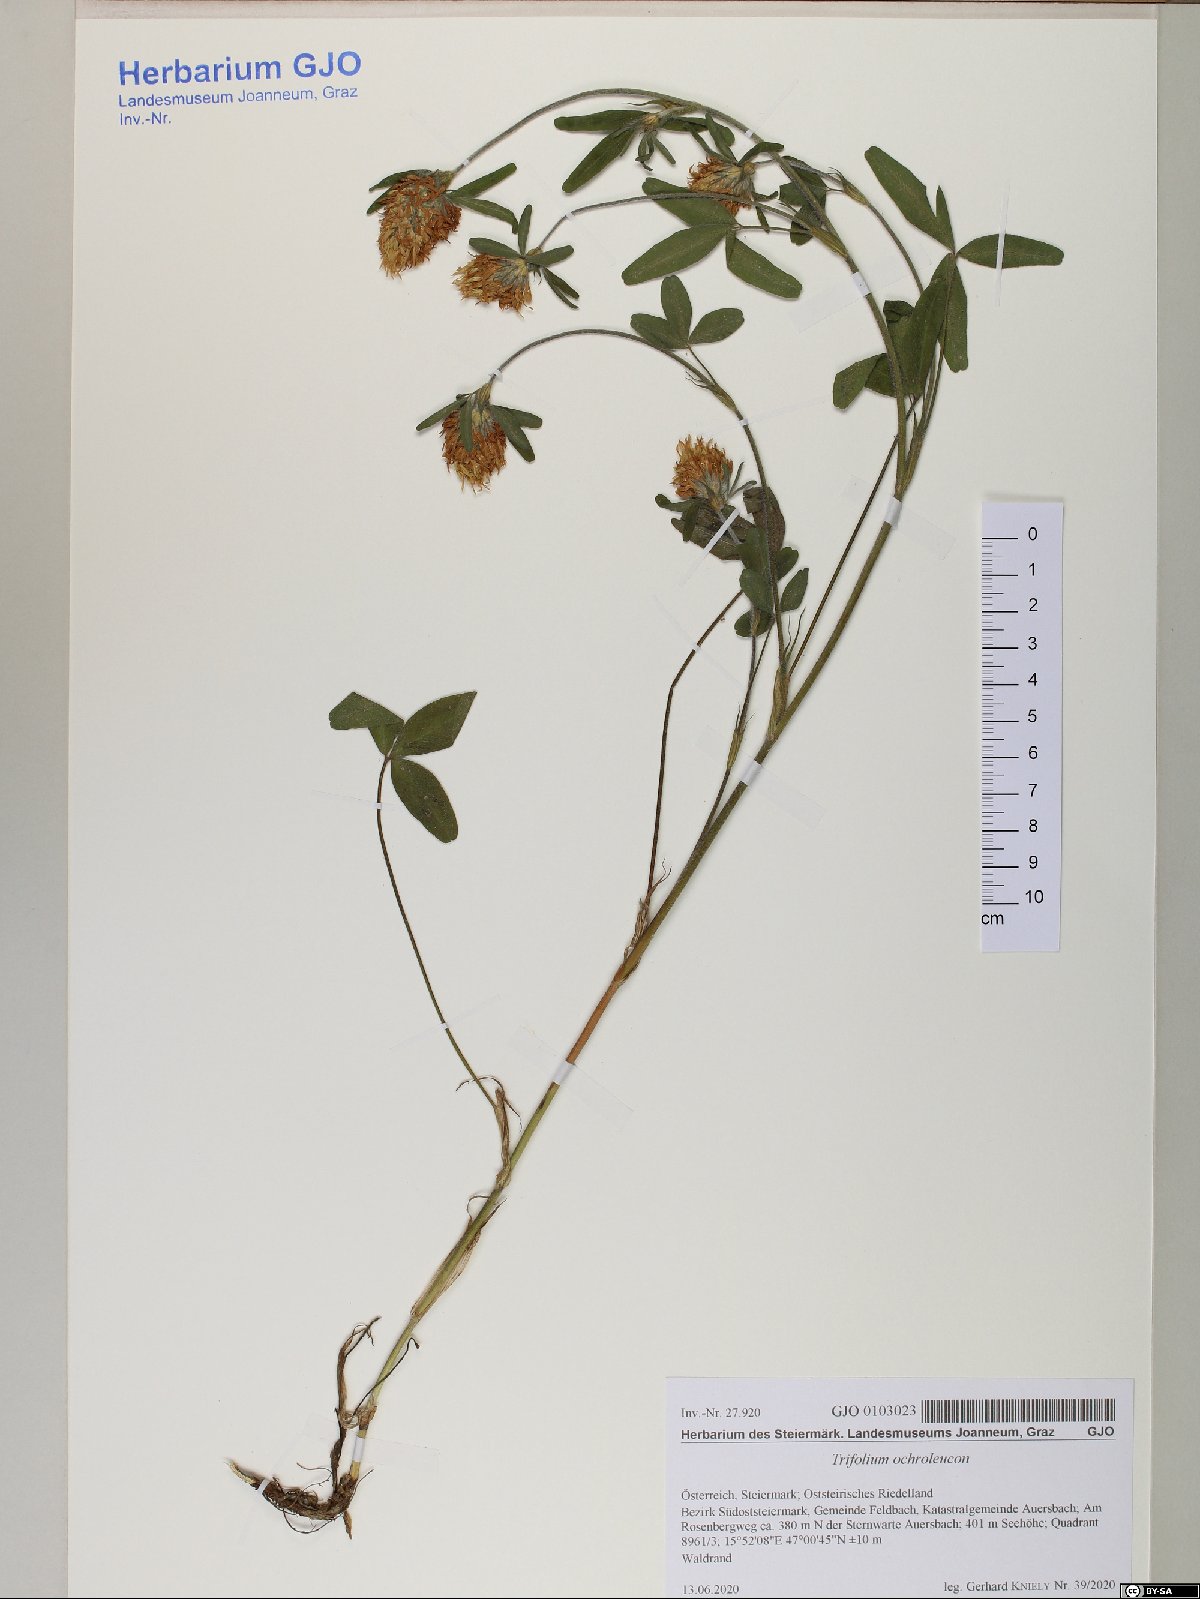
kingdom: Plantae
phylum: Tracheophyta
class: Magnoliopsida
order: Fabales
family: Fabaceae
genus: Trifolium
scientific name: Trifolium ochroleucon
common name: Sulphur clover
